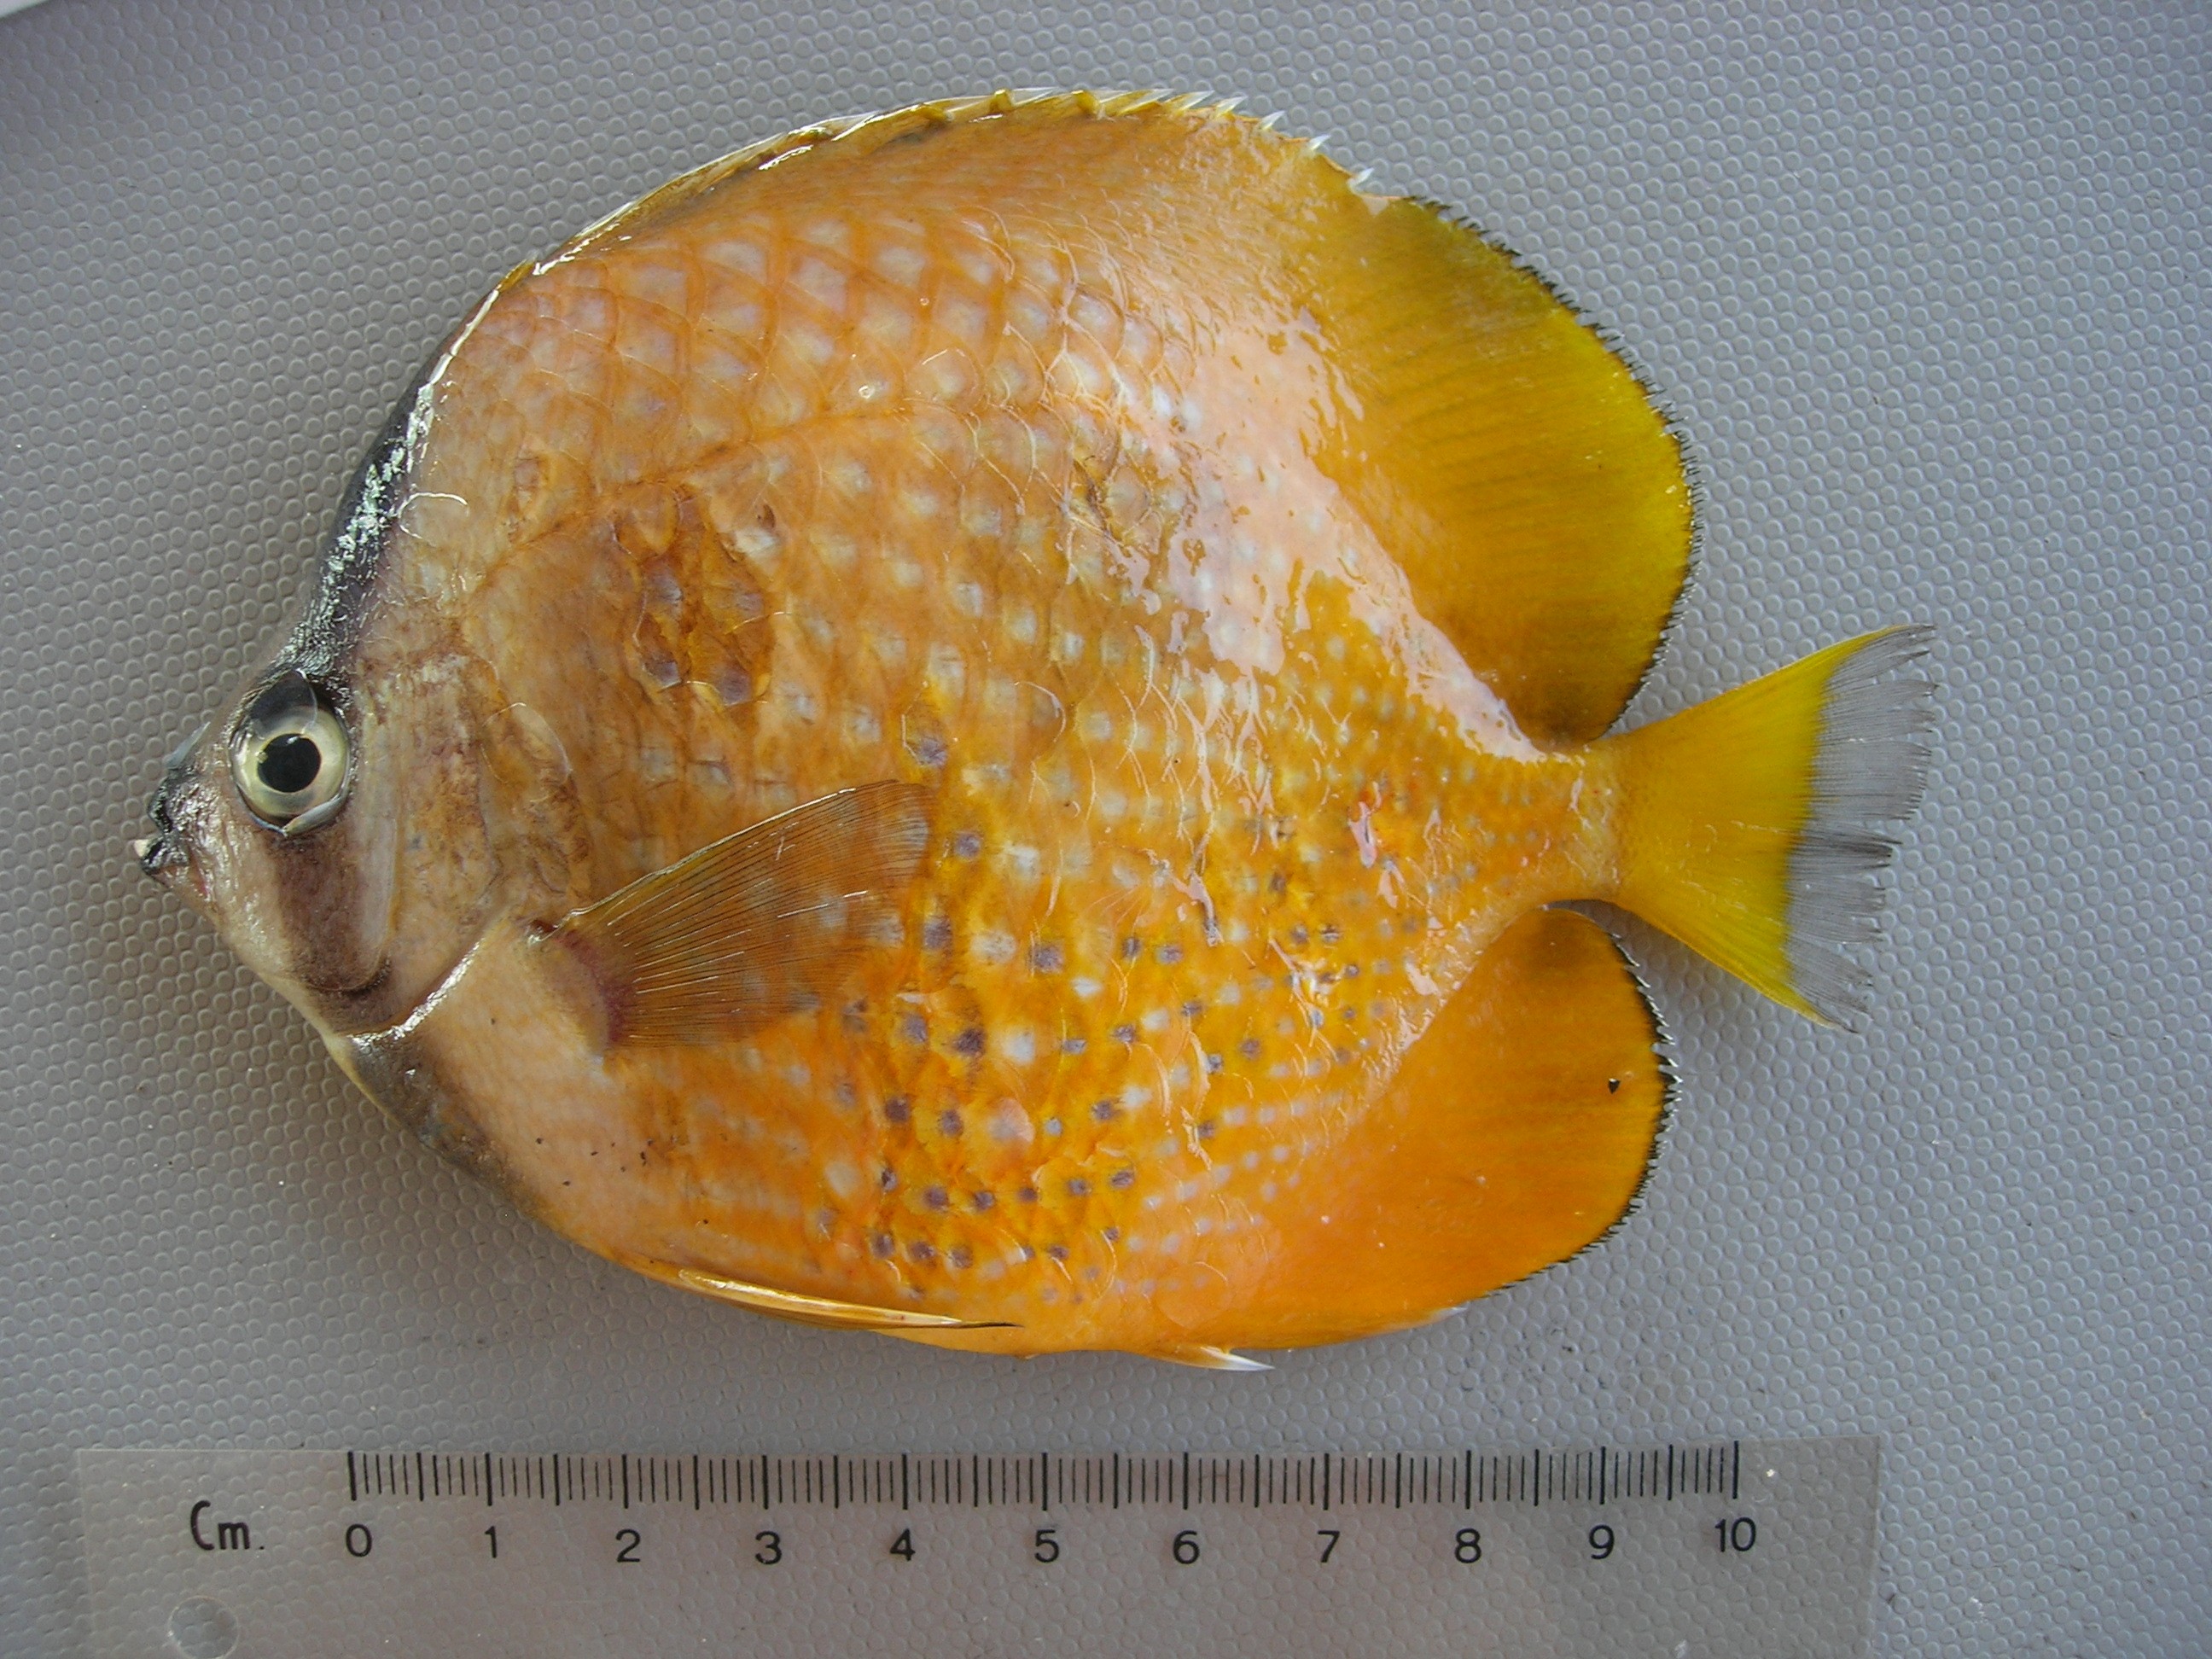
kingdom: Animalia
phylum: Chordata
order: Perciformes
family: Chaetodontidae
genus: Chaetodon
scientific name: Chaetodon kleinii
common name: Klein's butterflyfish
